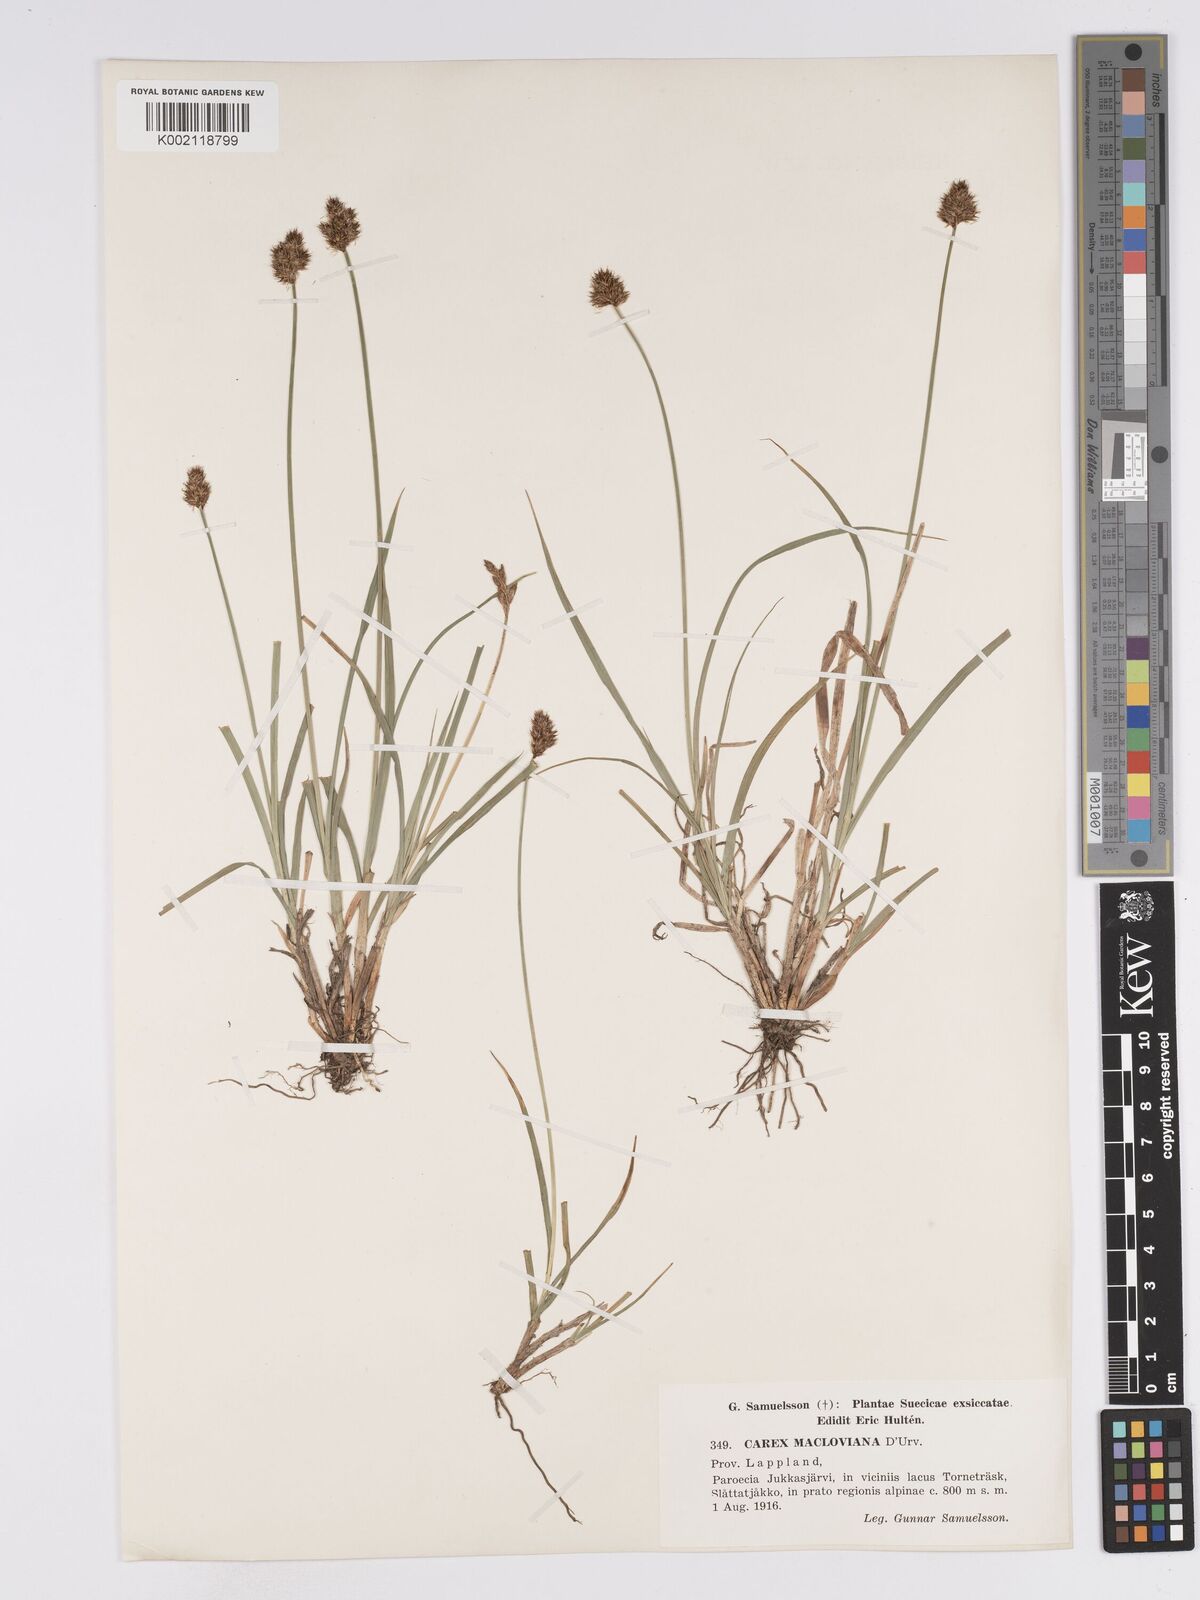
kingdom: Plantae
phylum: Tracheophyta
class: Liliopsida
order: Poales
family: Cyperaceae
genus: Carex
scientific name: Carex macloviana
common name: Falkland island sedge
